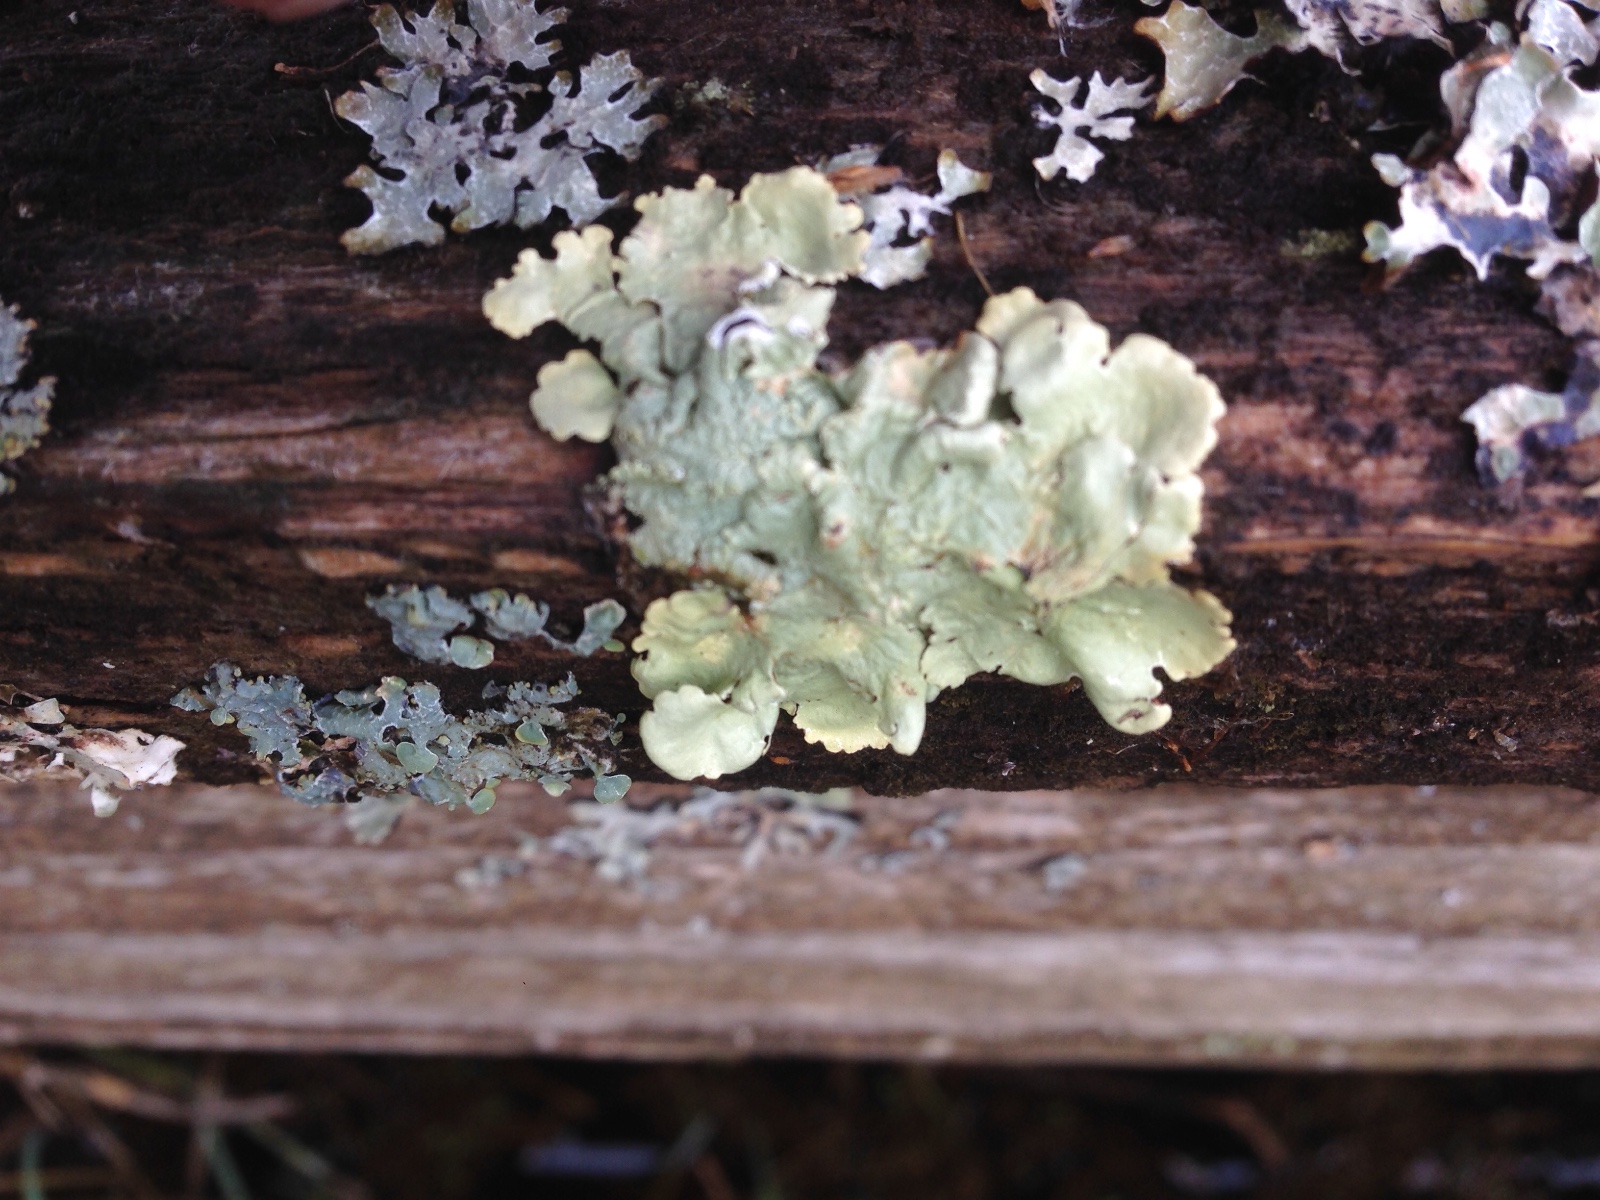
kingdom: Fungi
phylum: Ascomycota
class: Lecanoromycetes
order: Lecanorales
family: Parmeliaceae
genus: Flavoparmelia
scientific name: Flavoparmelia caperata
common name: gulgrøn skållav
